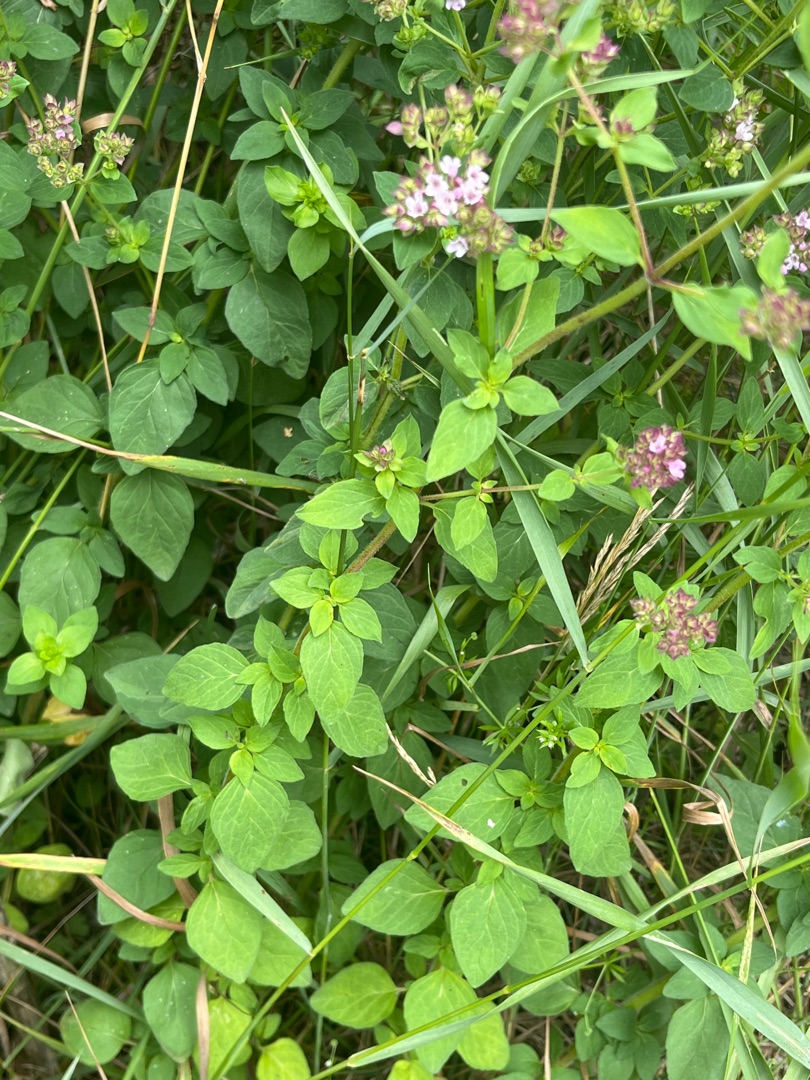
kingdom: Plantae
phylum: Tracheophyta
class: Magnoliopsida
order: Lamiales
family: Lamiaceae
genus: Origanum
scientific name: Origanum vulgare
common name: Merian
